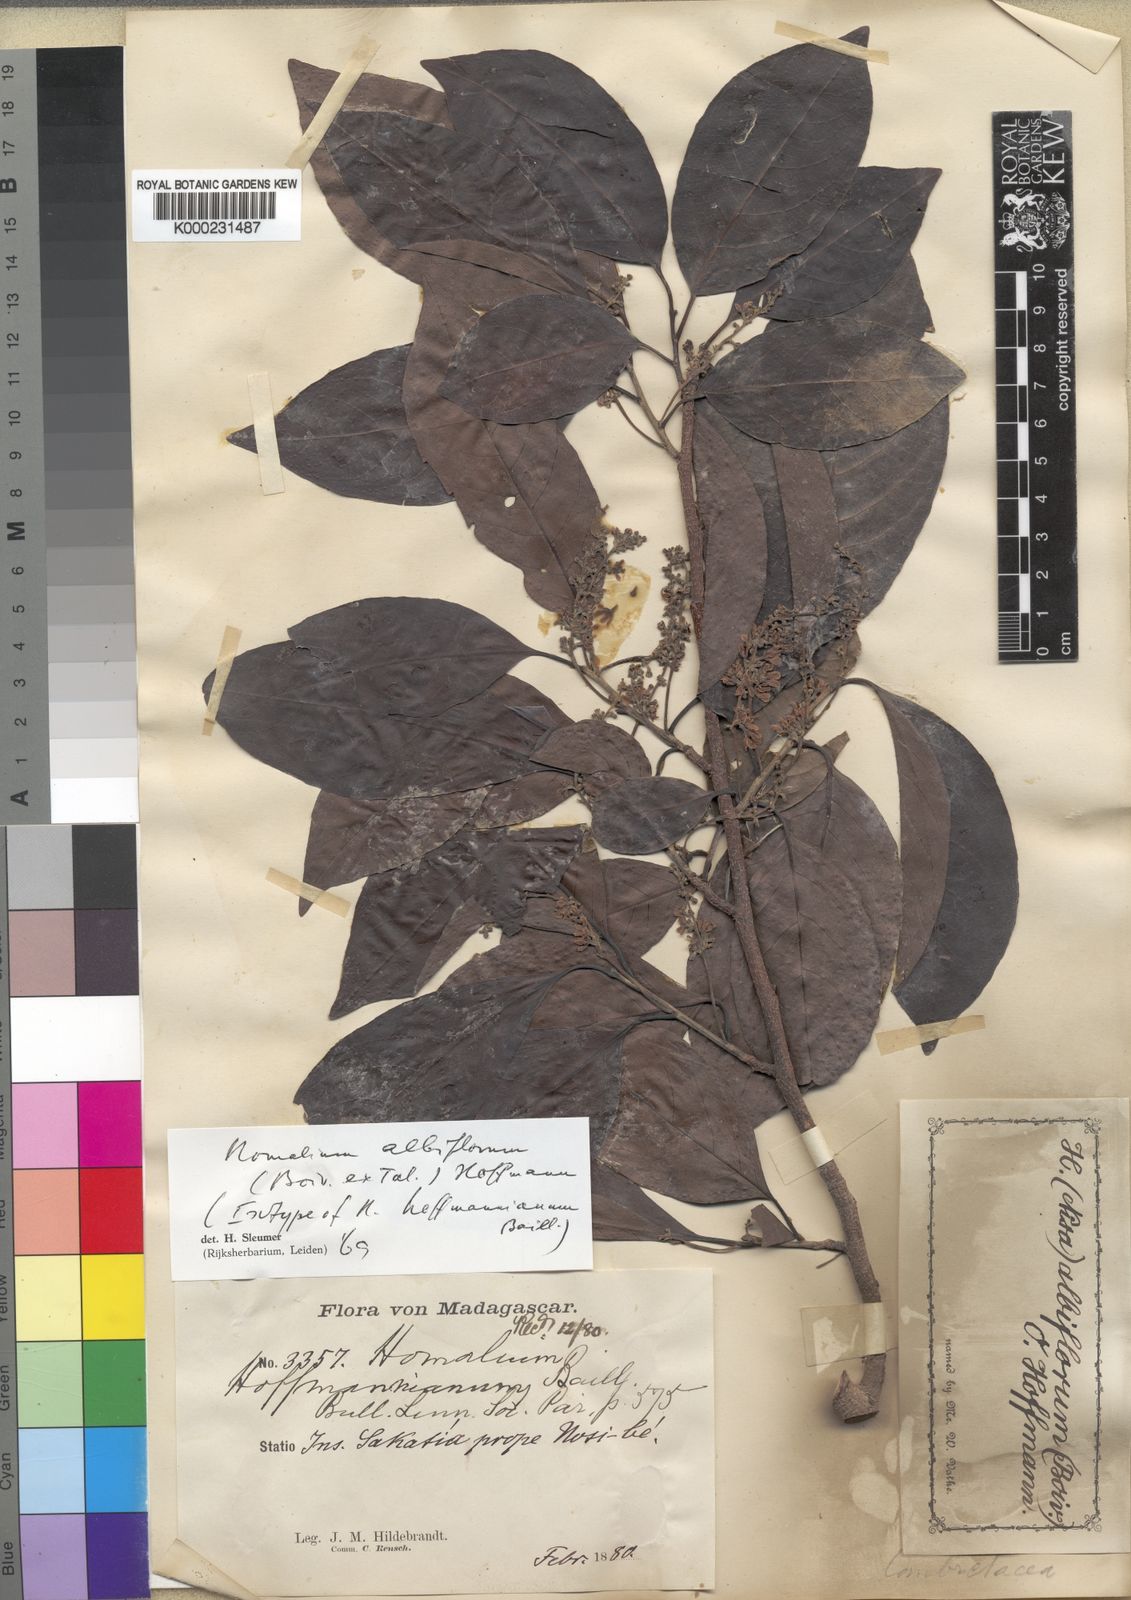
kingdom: Plantae
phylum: Tracheophyta
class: Magnoliopsida
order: Malpighiales
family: Salicaceae
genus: Homalium
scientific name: Homalium albiflorum
